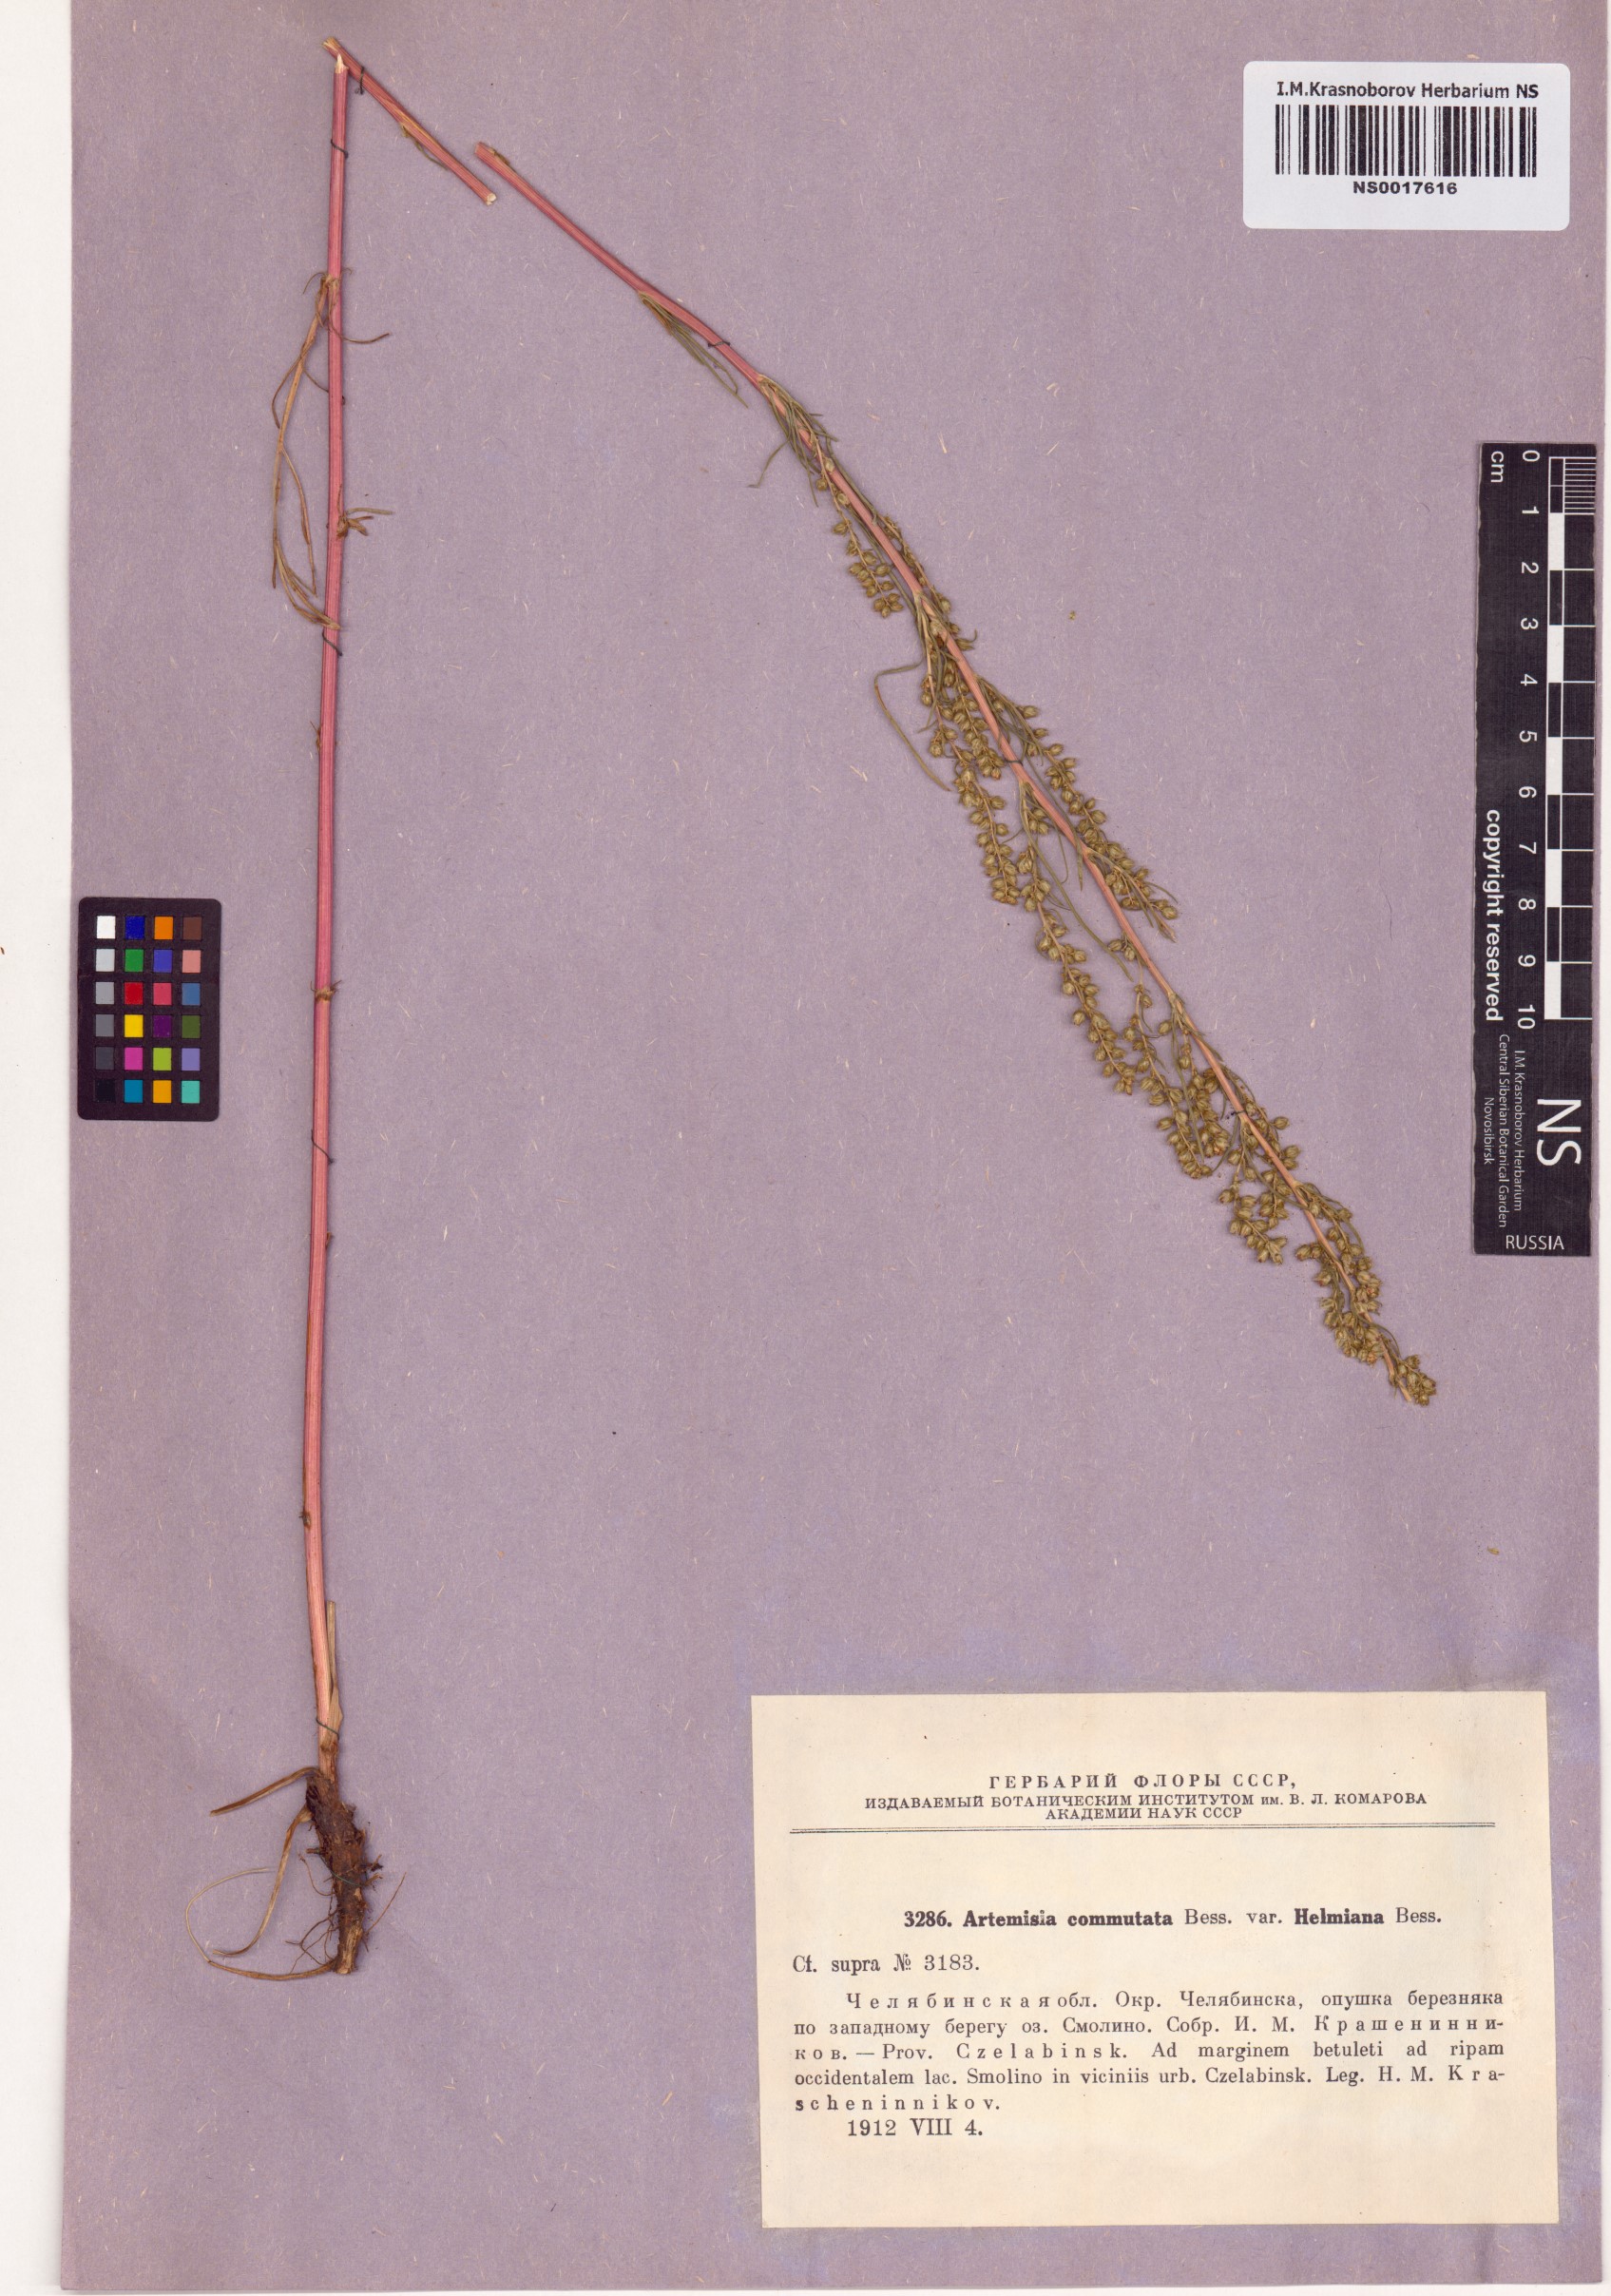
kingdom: Plantae
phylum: Tracheophyta
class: Magnoliopsida
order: Asterales
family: Asteraceae
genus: Artemisia
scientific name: Artemisia pubescens
